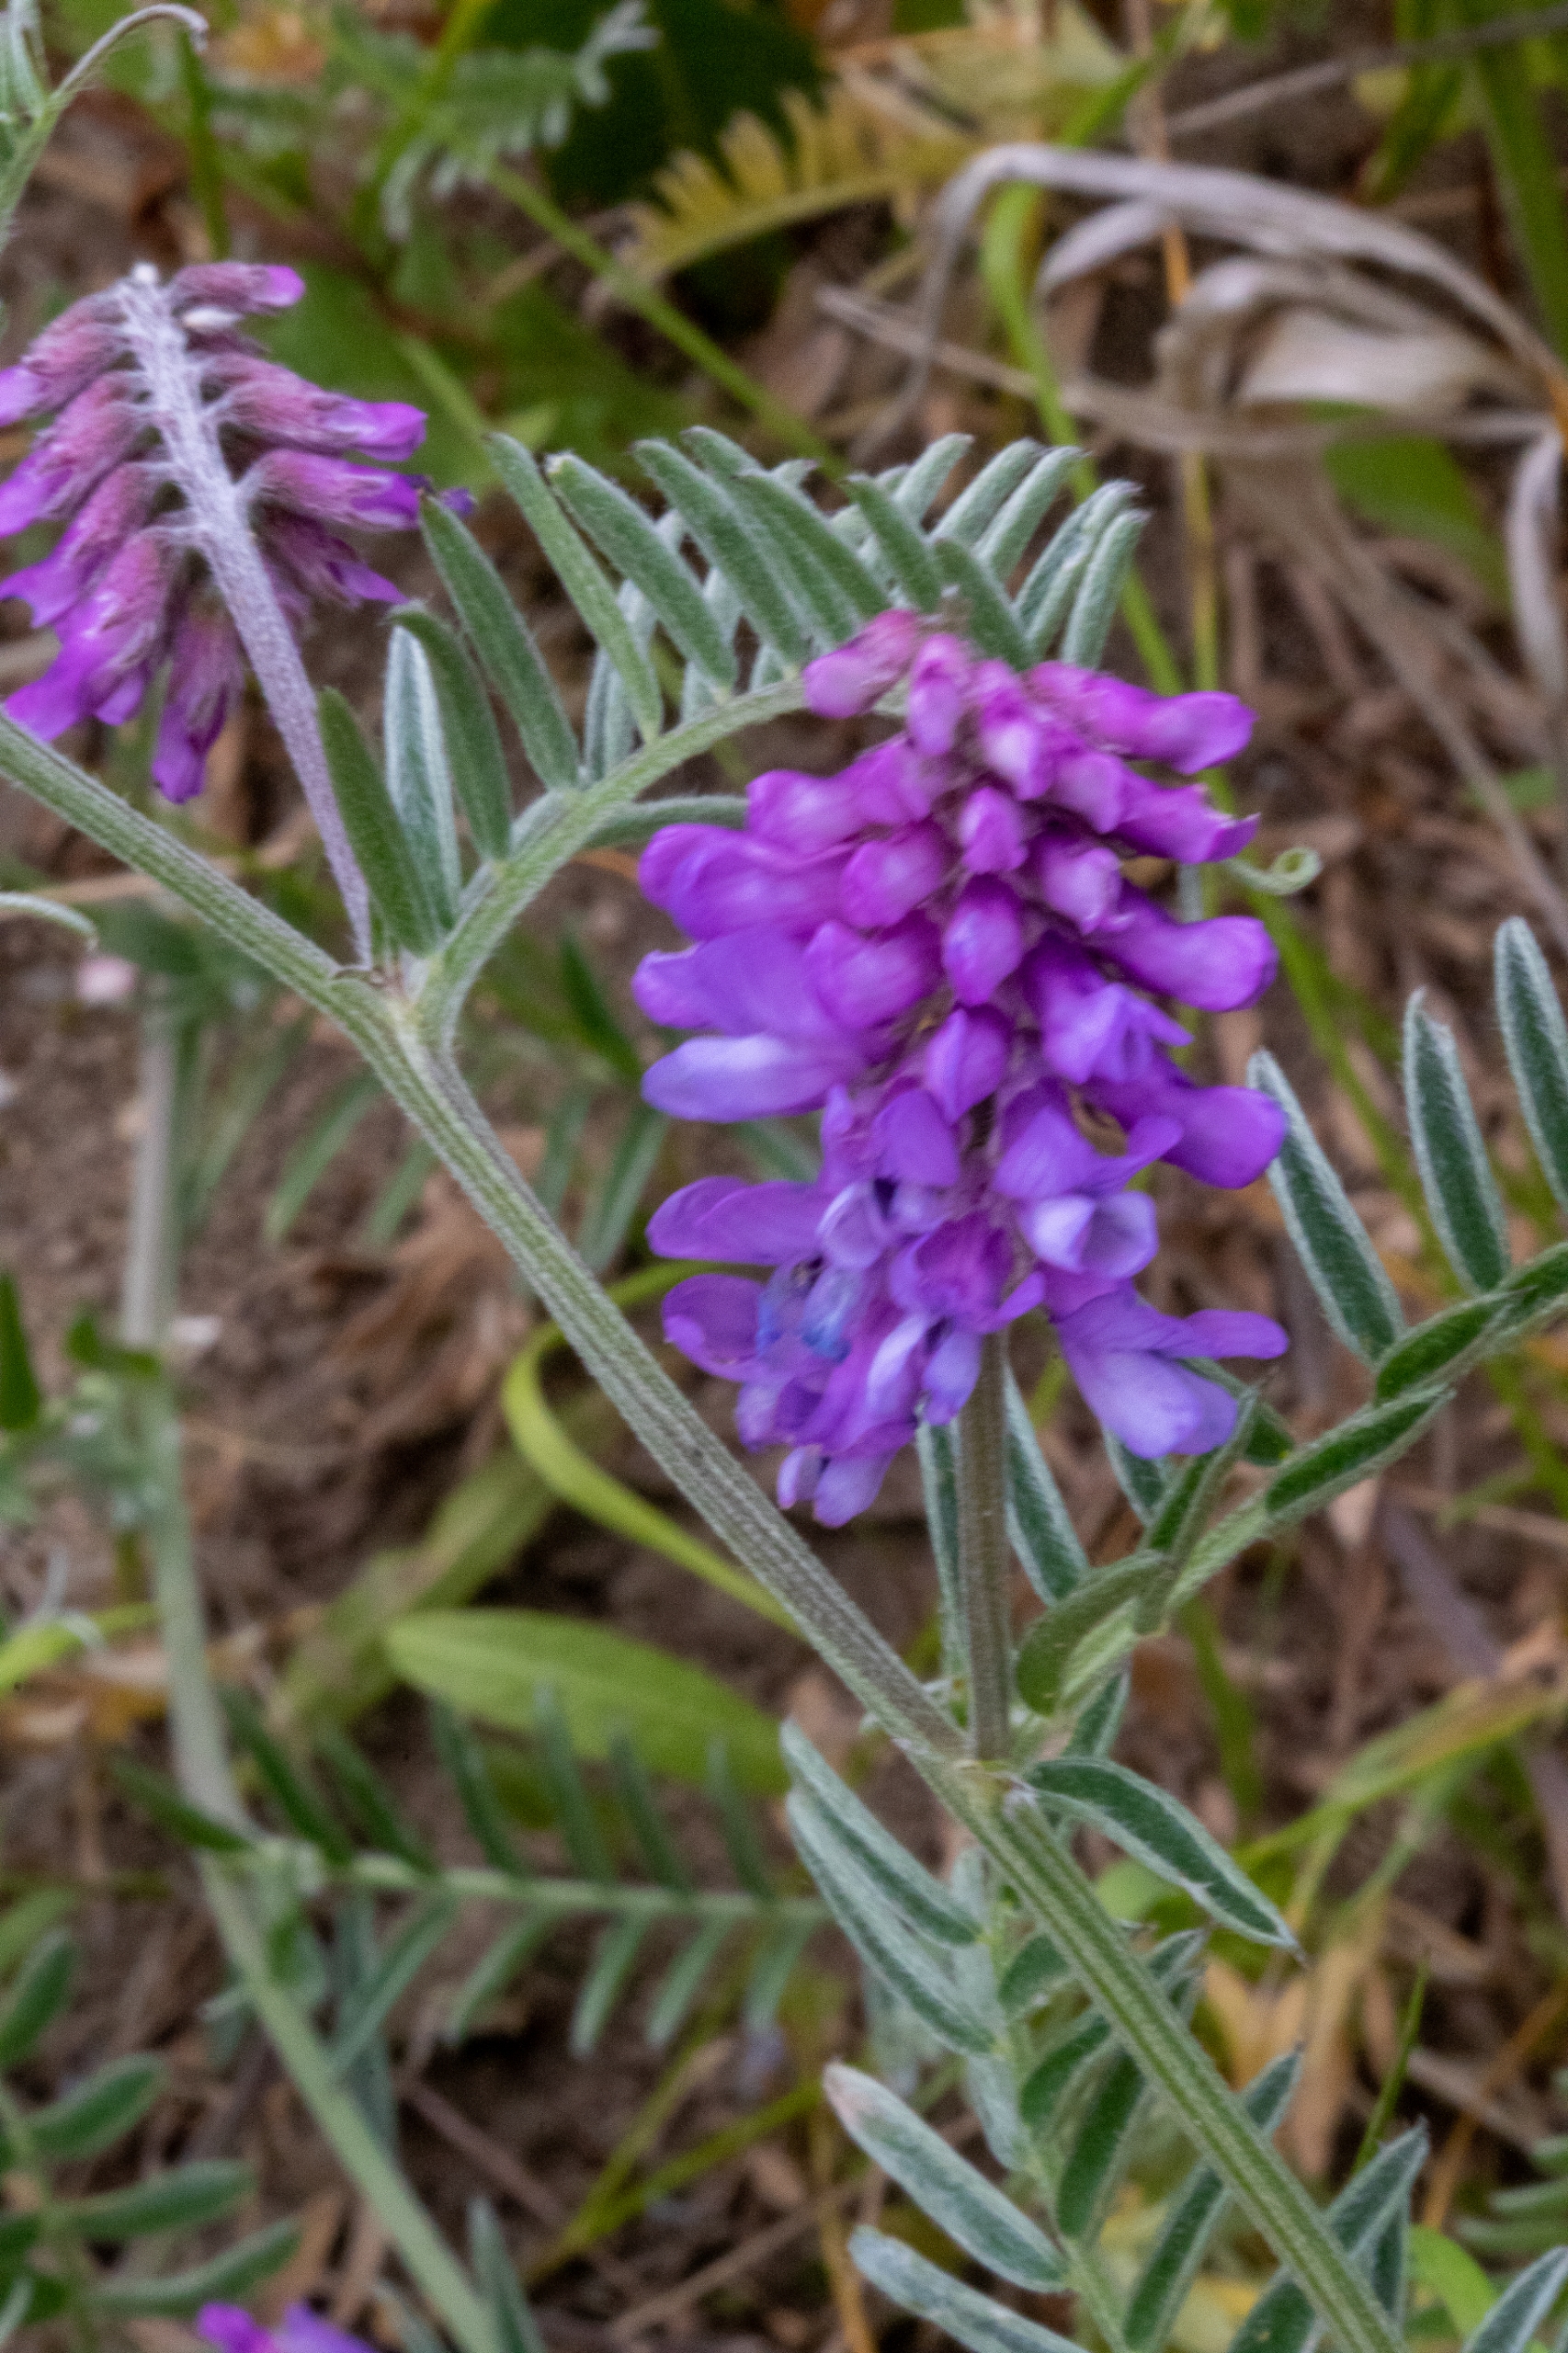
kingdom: Plantae
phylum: Tracheophyta
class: Magnoliopsida
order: Fabales
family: Fabaceae
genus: Vicia
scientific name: Vicia villosa
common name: Sand-vikke
